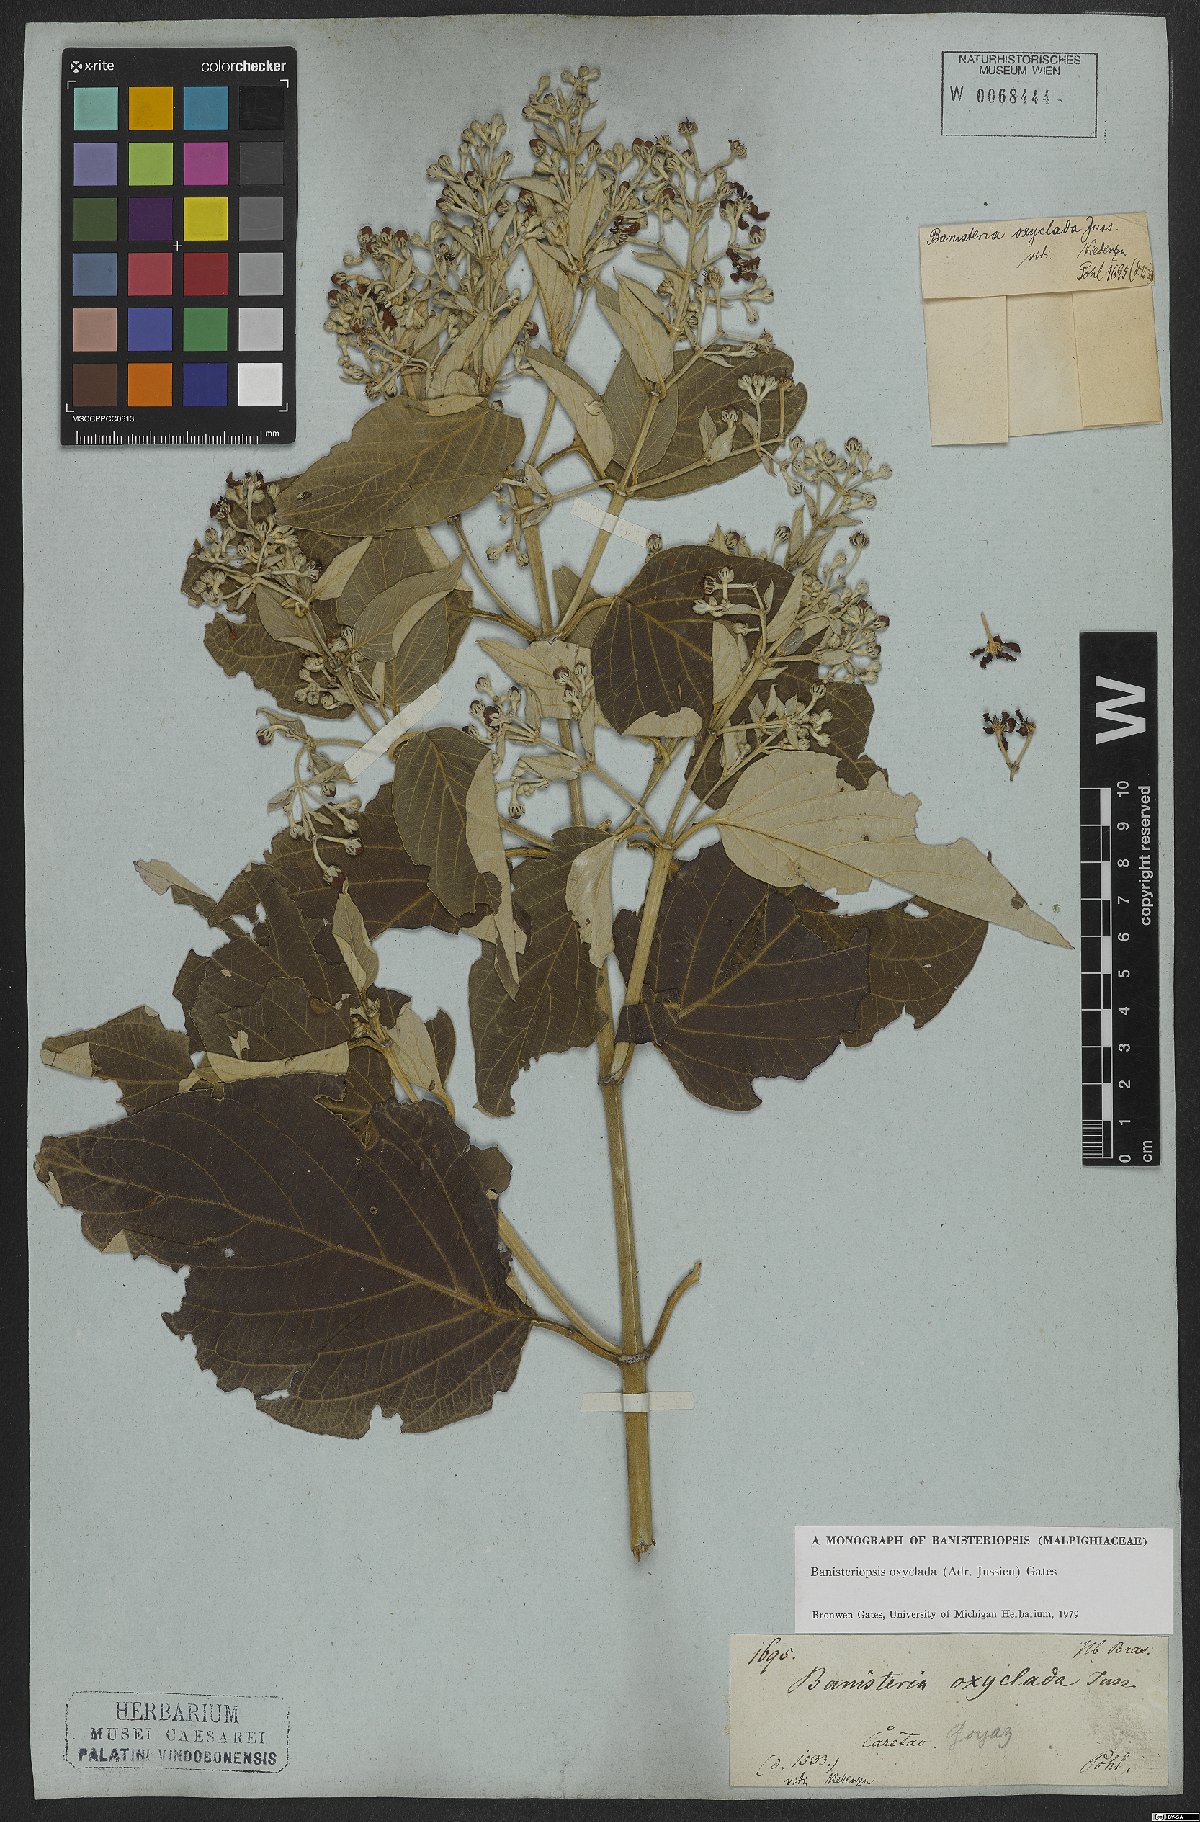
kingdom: Plantae
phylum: Tracheophyta
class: Magnoliopsida
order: Malpighiales
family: Malpighiaceae
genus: Banisteriopsis
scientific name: Banisteriopsis oxyclada
